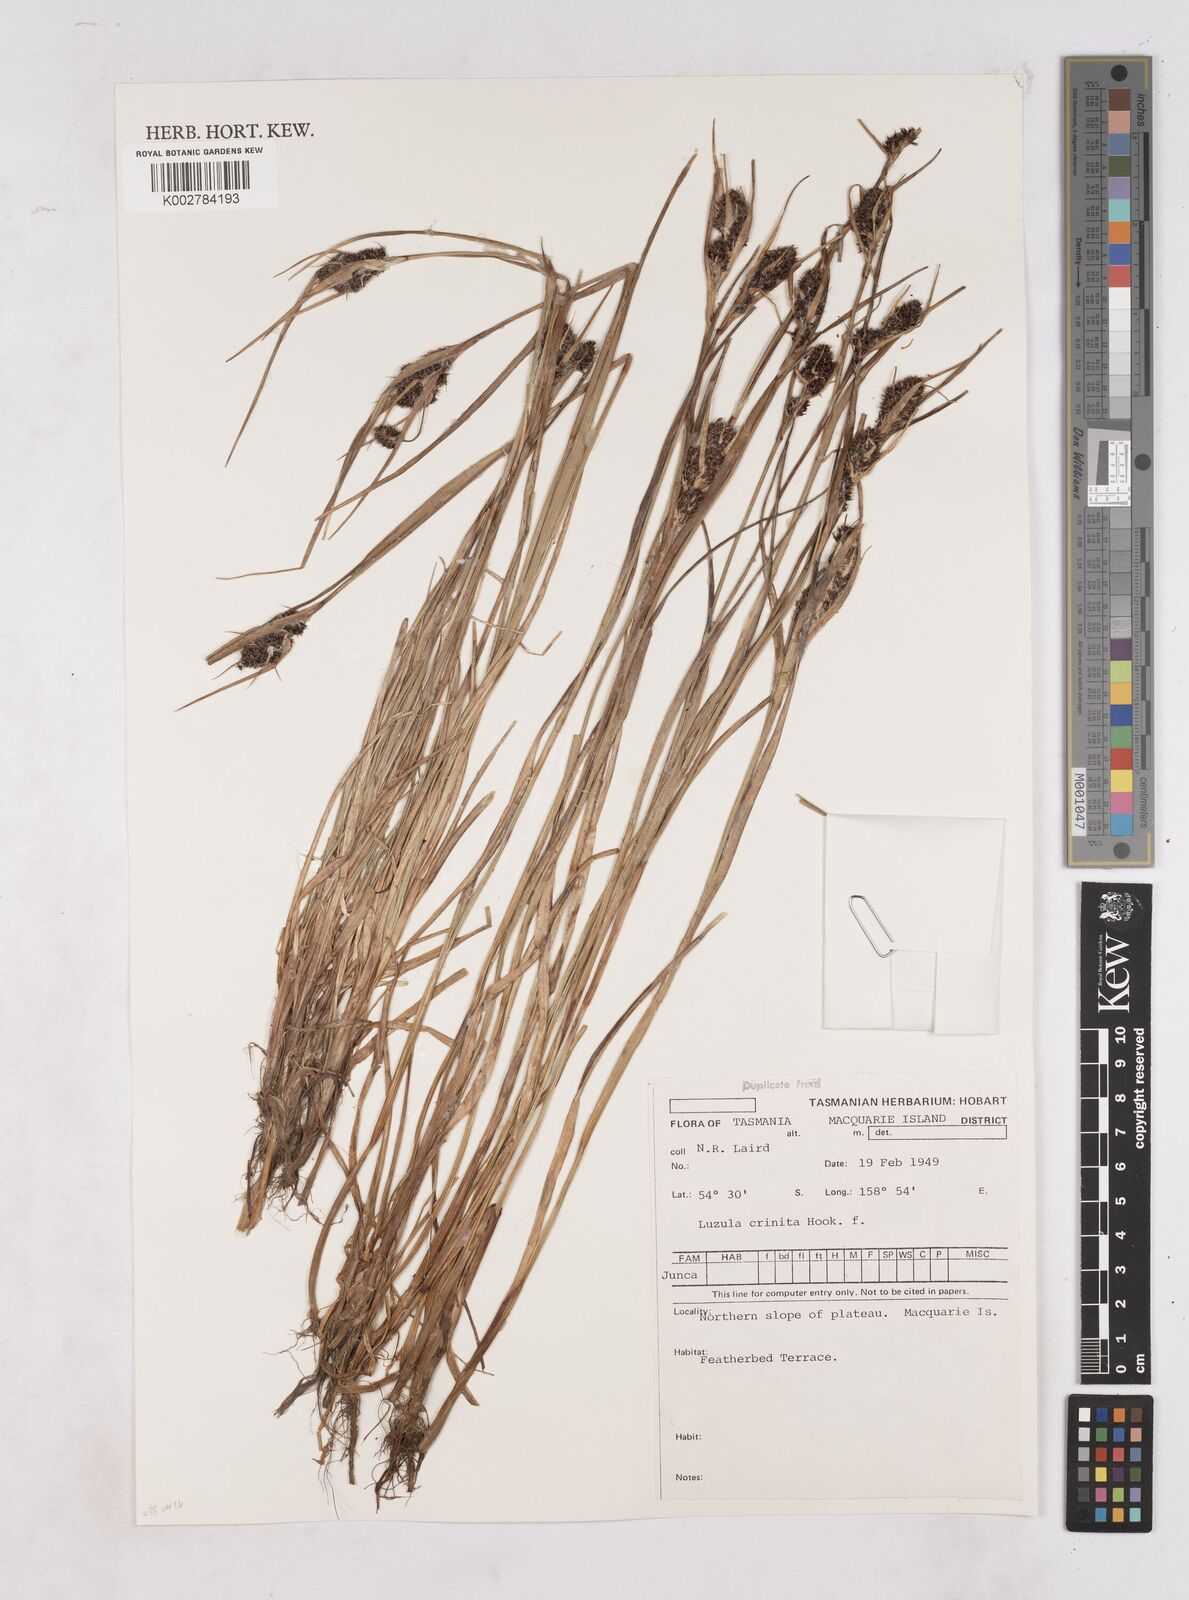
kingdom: Plantae
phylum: Tracheophyta
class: Liliopsida
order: Poales
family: Juncaceae
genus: Luzula
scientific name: Luzula campestris
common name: Field wood-rush
